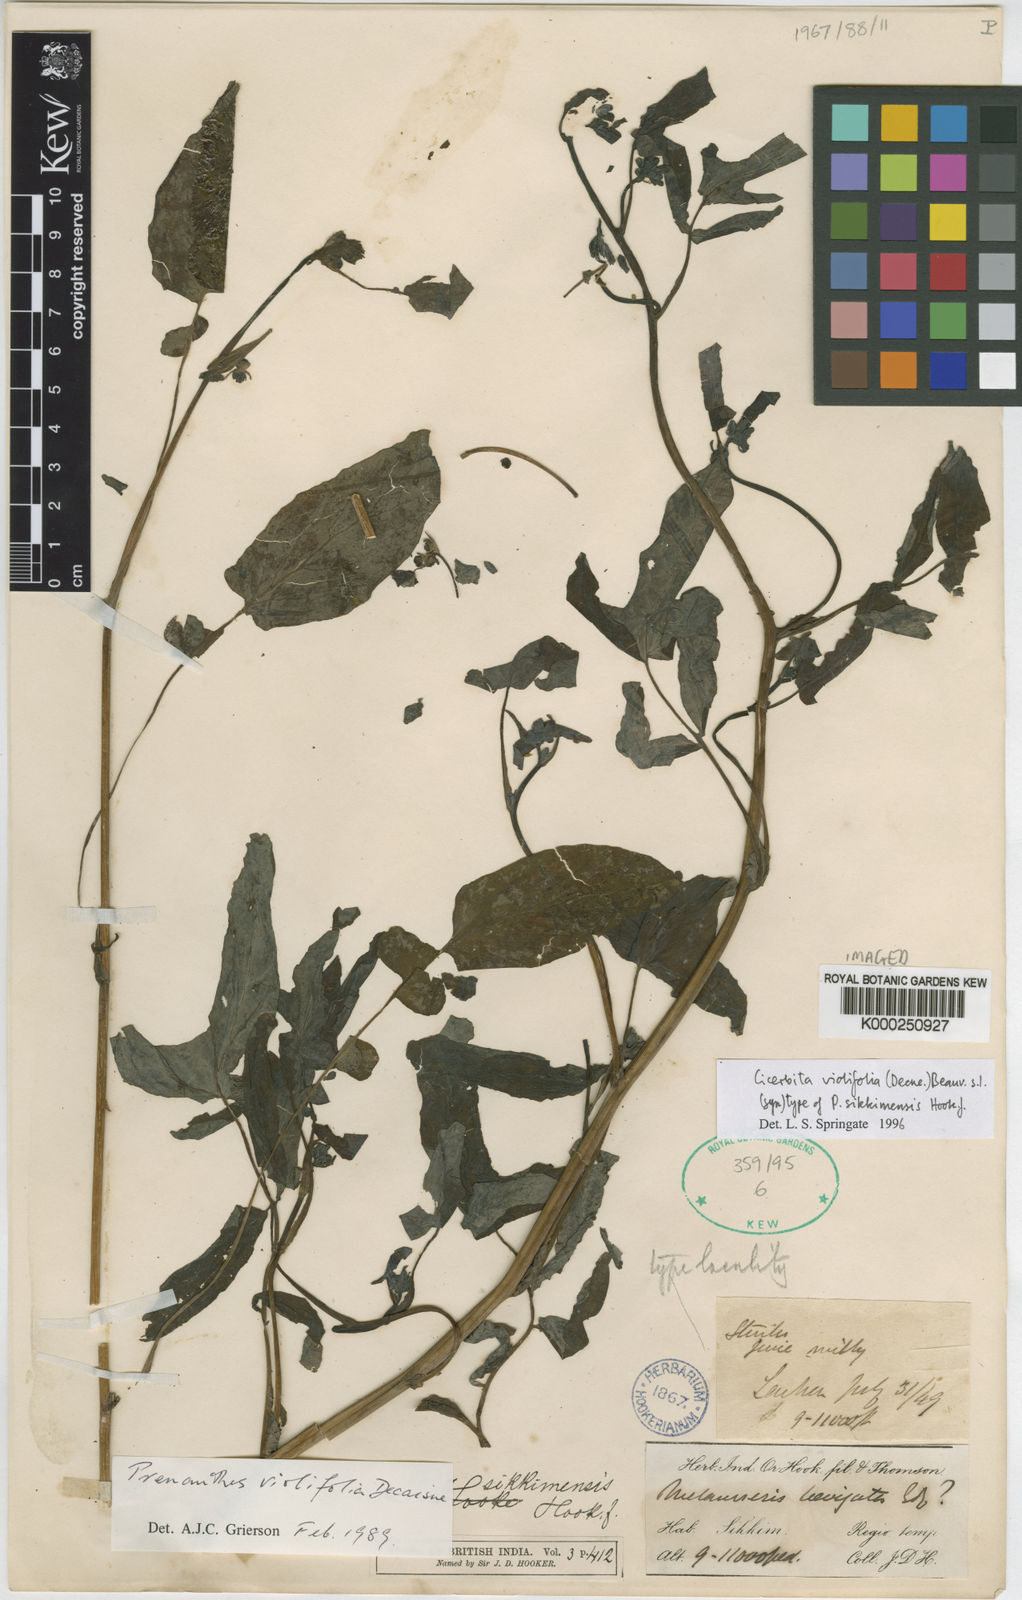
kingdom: Plantae
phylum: Tracheophyta
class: Magnoliopsida
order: Asterales
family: Asteraceae
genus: Melanoseris
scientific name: Melanoseris violifolia
